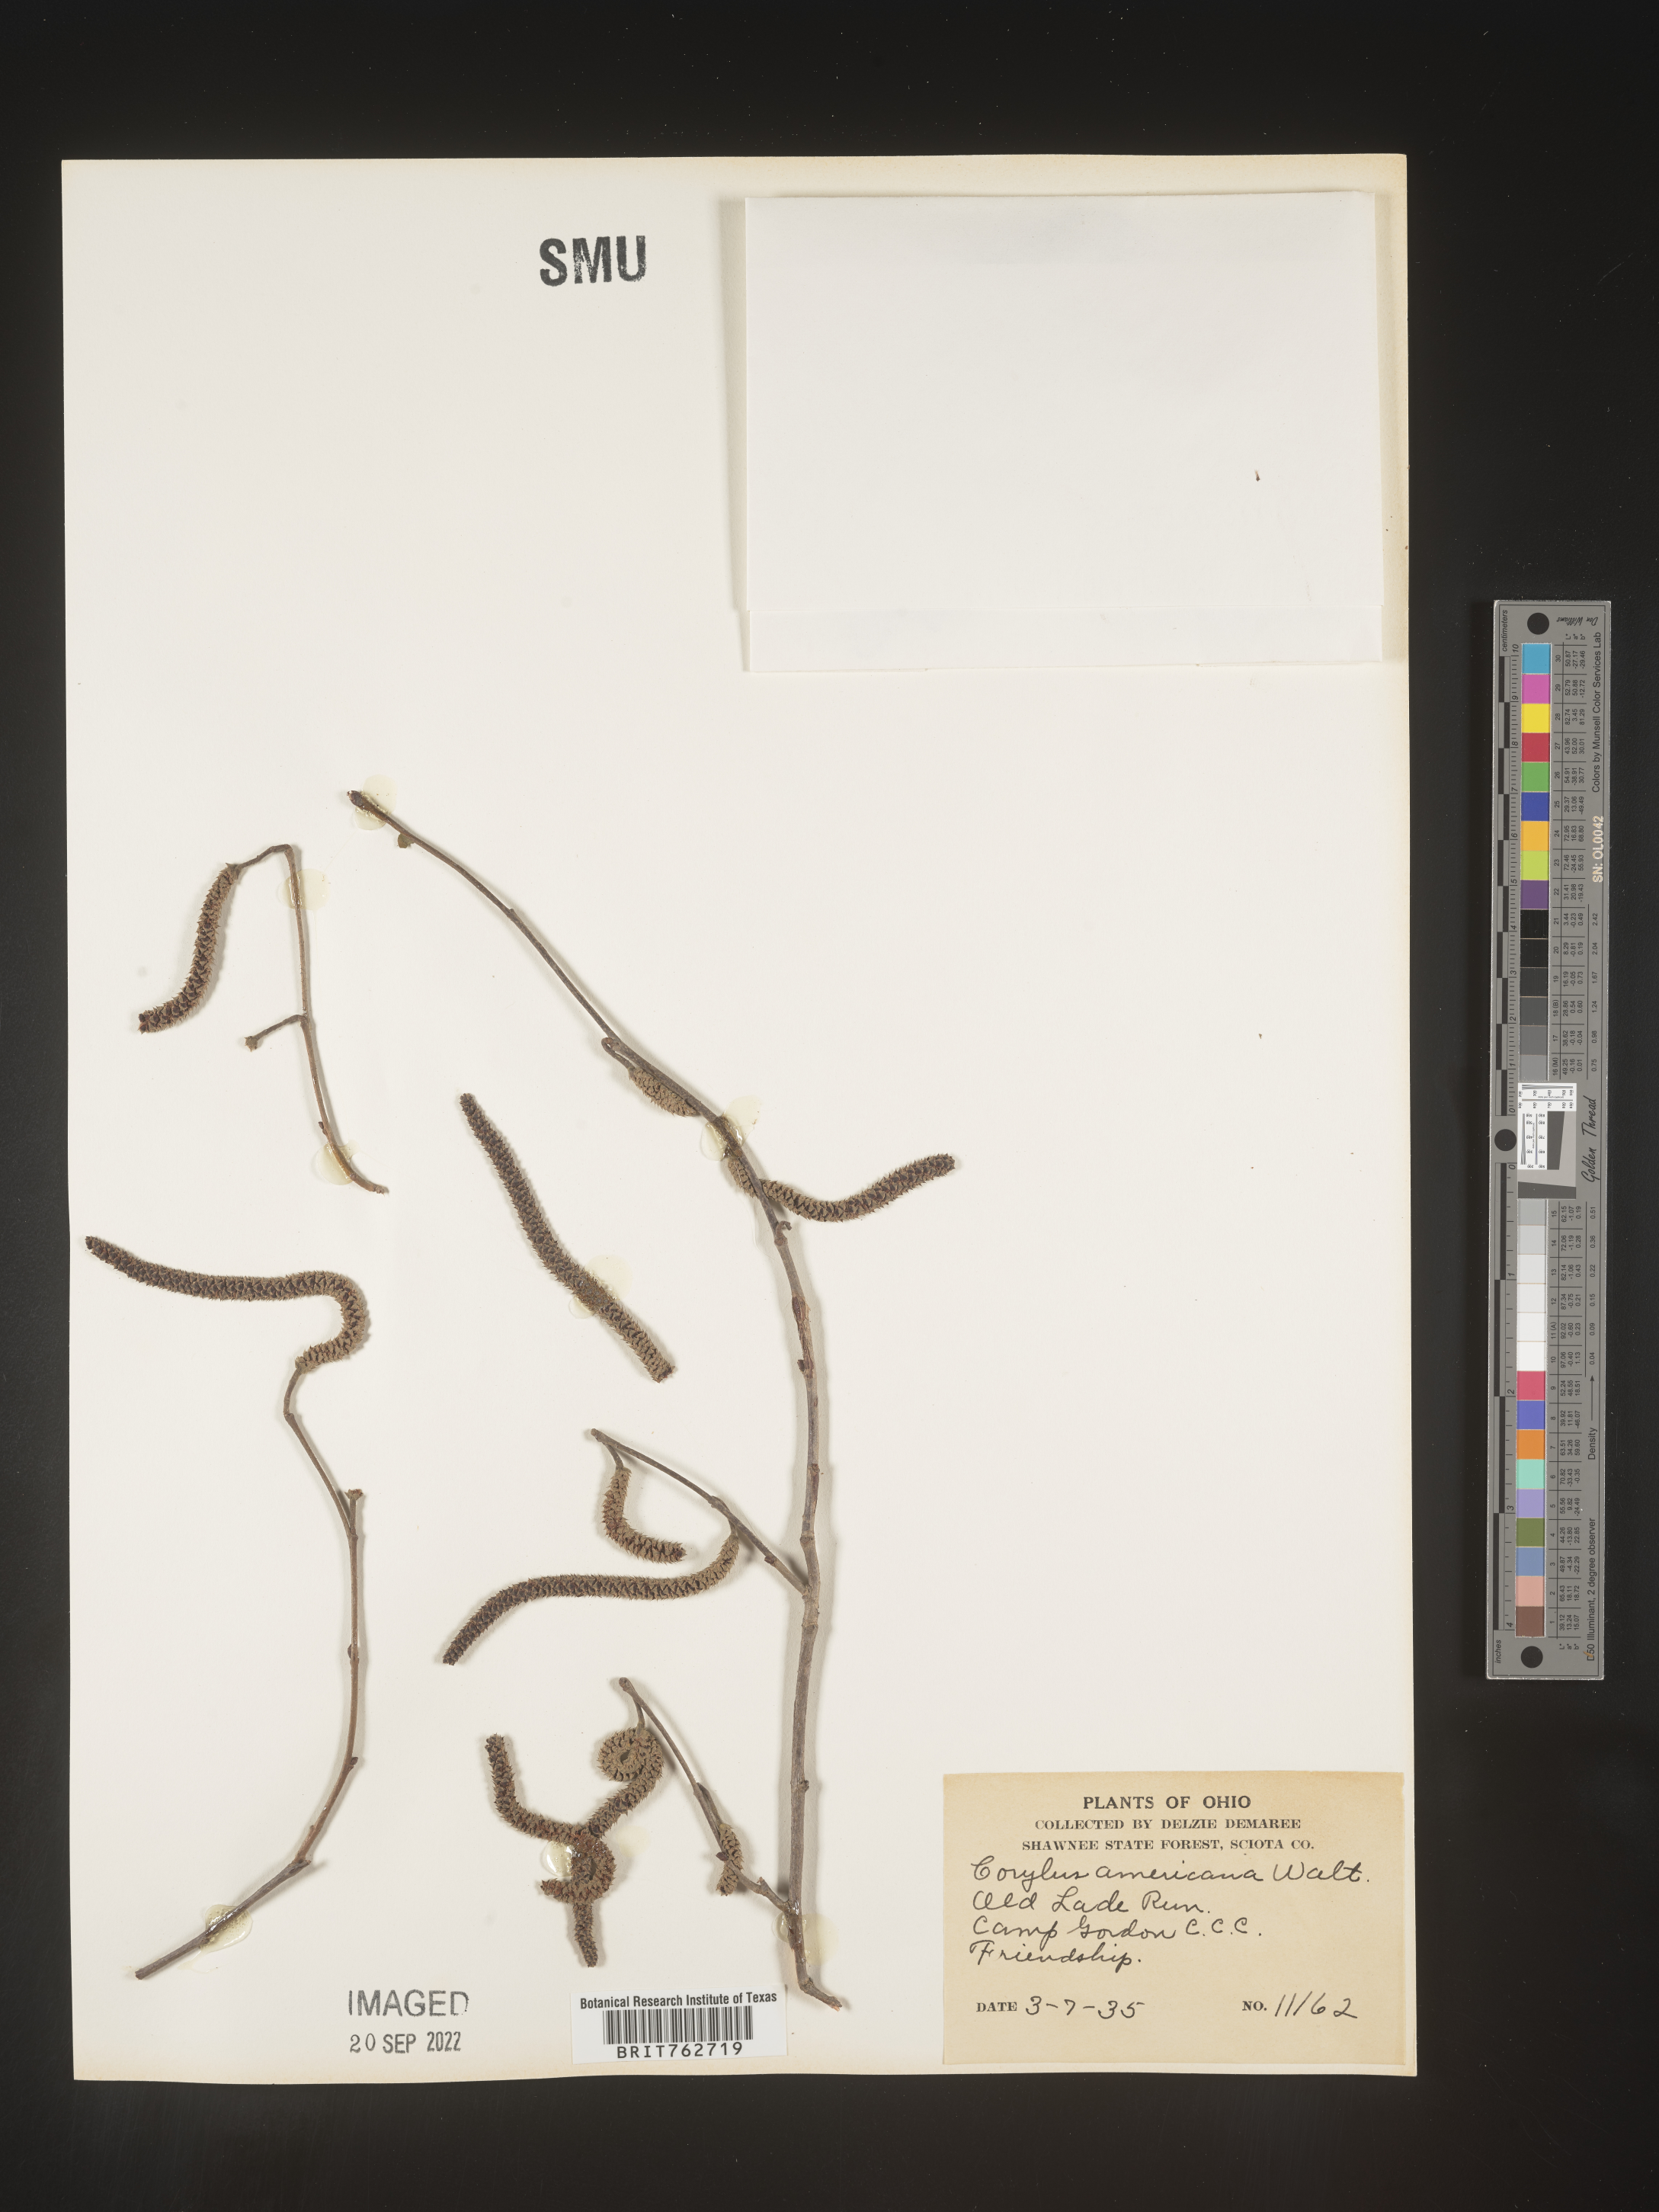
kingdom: Plantae
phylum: Tracheophyta
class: Magnoliopsida
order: Fagales
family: Betulaceae
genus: Corylus
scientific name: Corylus americana
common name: American hazel
